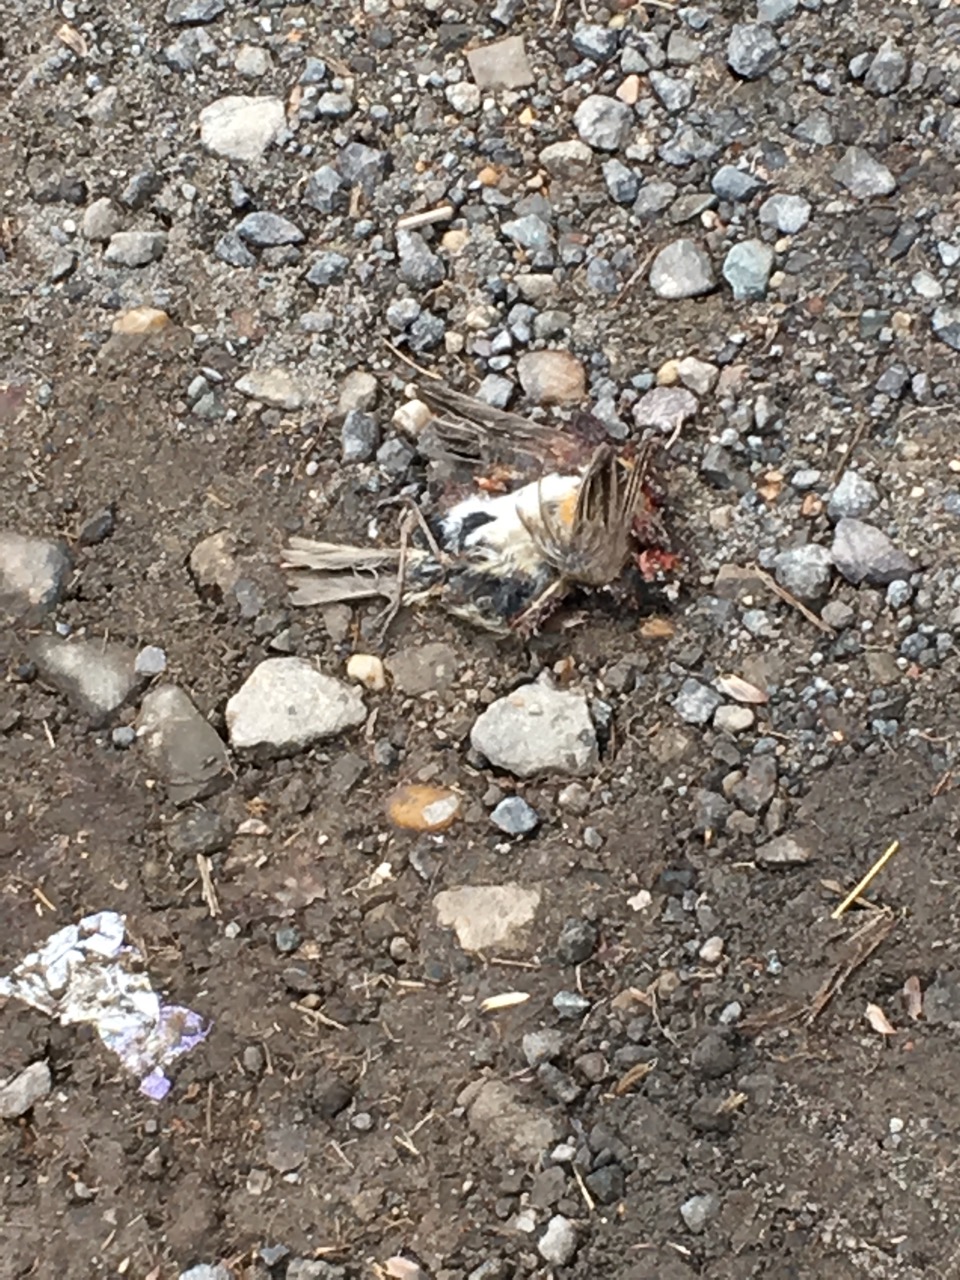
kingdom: Animalia
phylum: Chordata
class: Aves
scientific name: Aves
